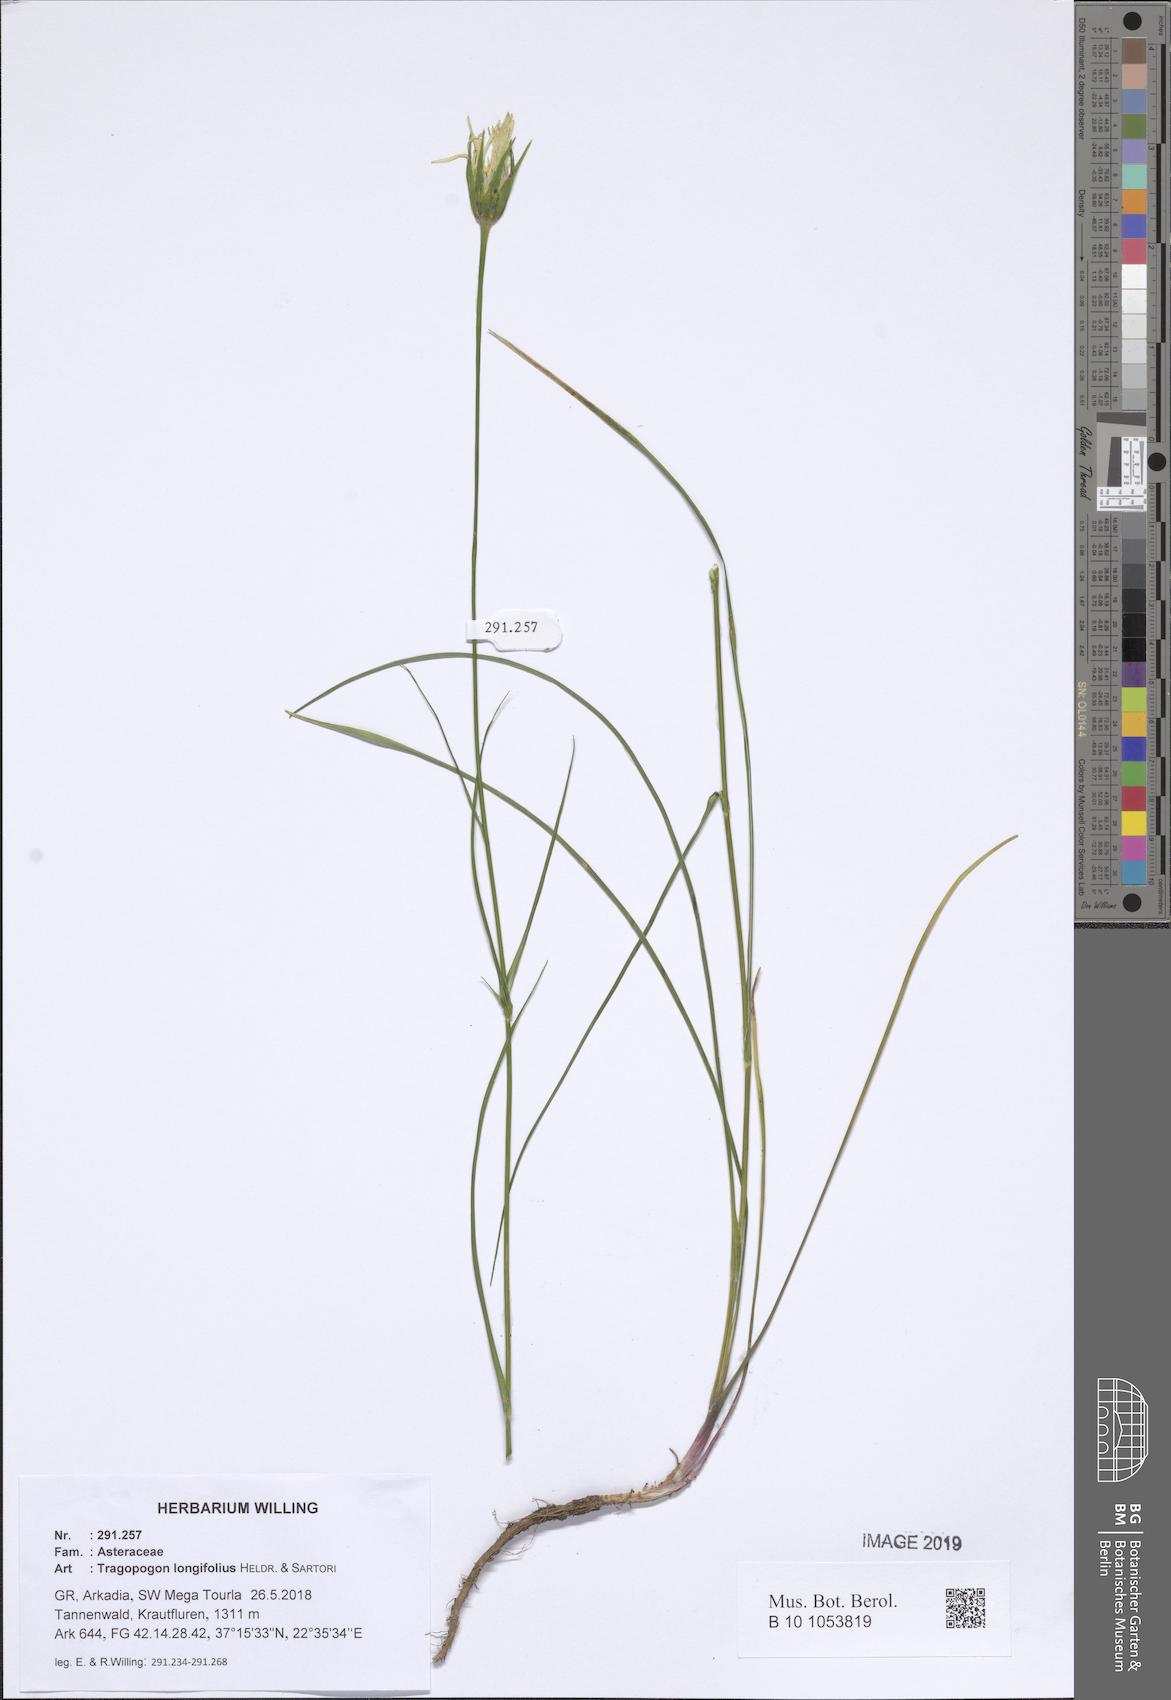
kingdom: Plantae
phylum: Tracheophyta
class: Magnoliopsida
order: Asterales
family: Asteraceae
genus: Tragopogon
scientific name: Tragopogon longifolius
